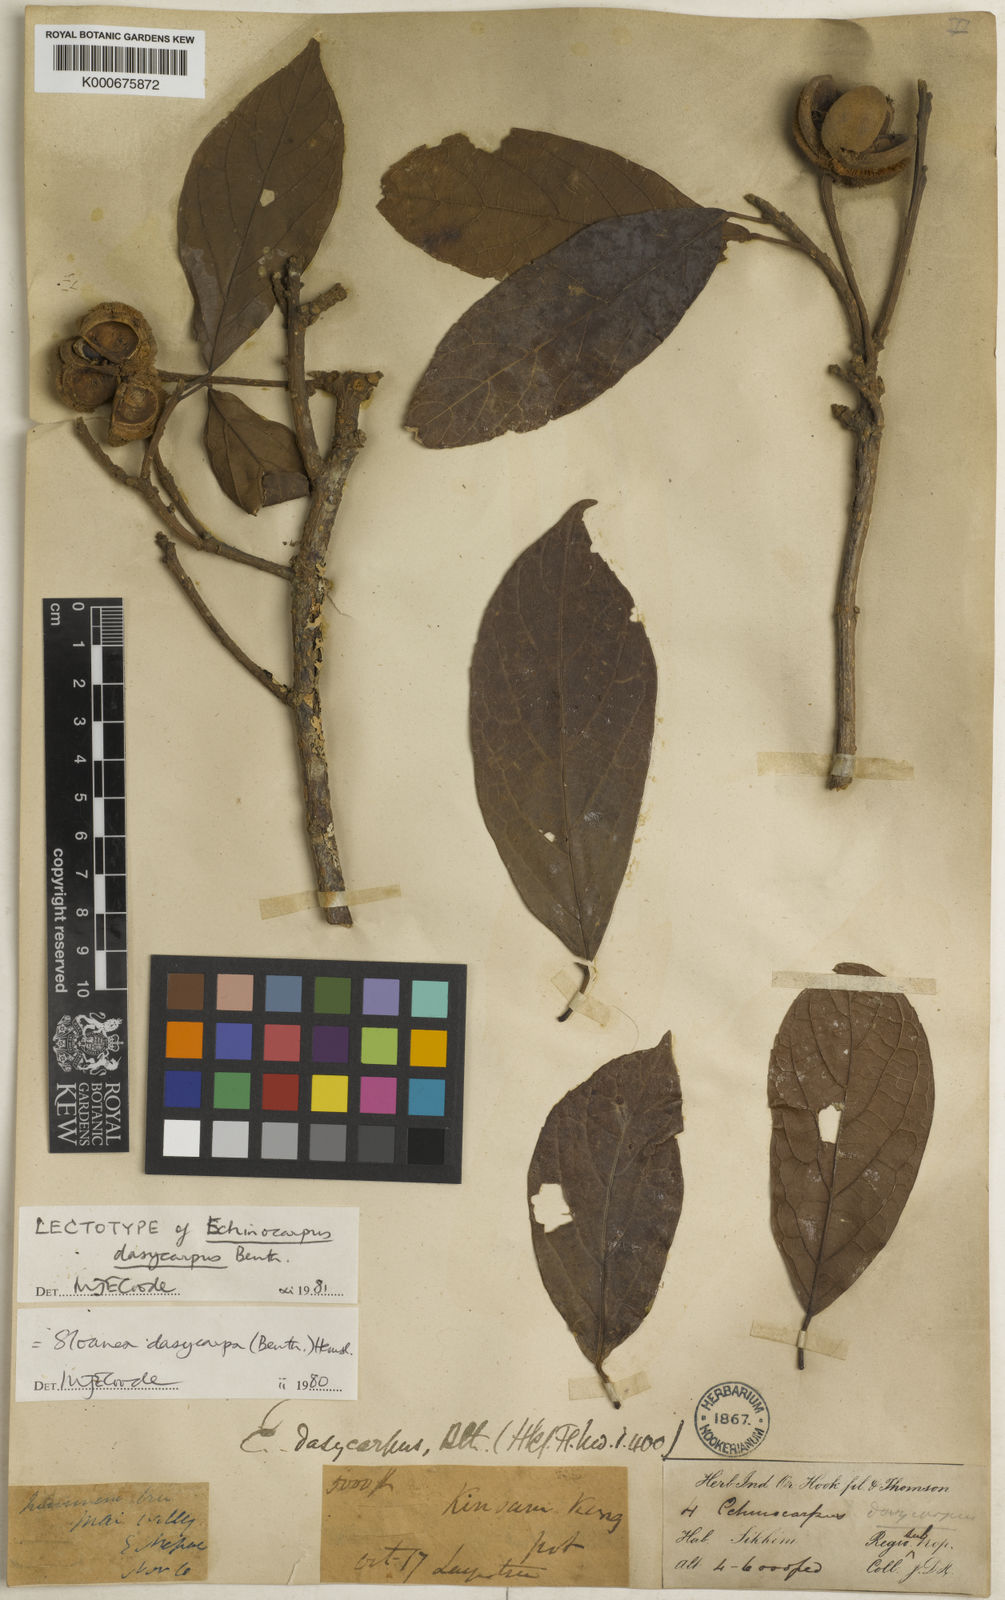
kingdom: Plantae
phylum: Tracheophyta
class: Magnoliopsida
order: Oxalidales
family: Elaeocarpaceae
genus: Sloanea
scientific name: Sloanea dasycarpa
